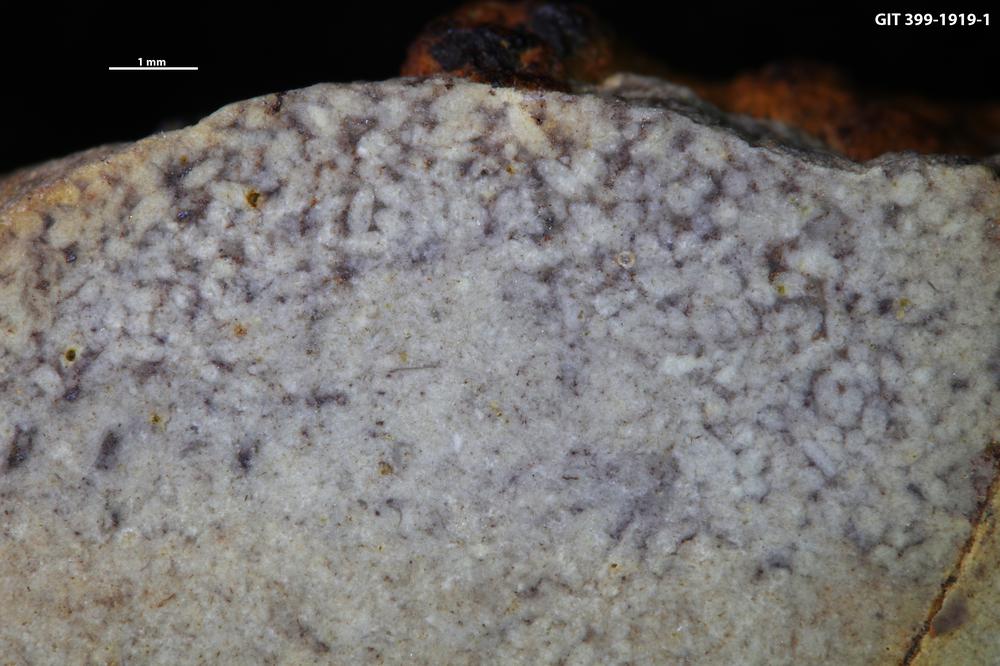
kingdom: Animalia
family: Coprulidae
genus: Coprulus
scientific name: Coprulus
